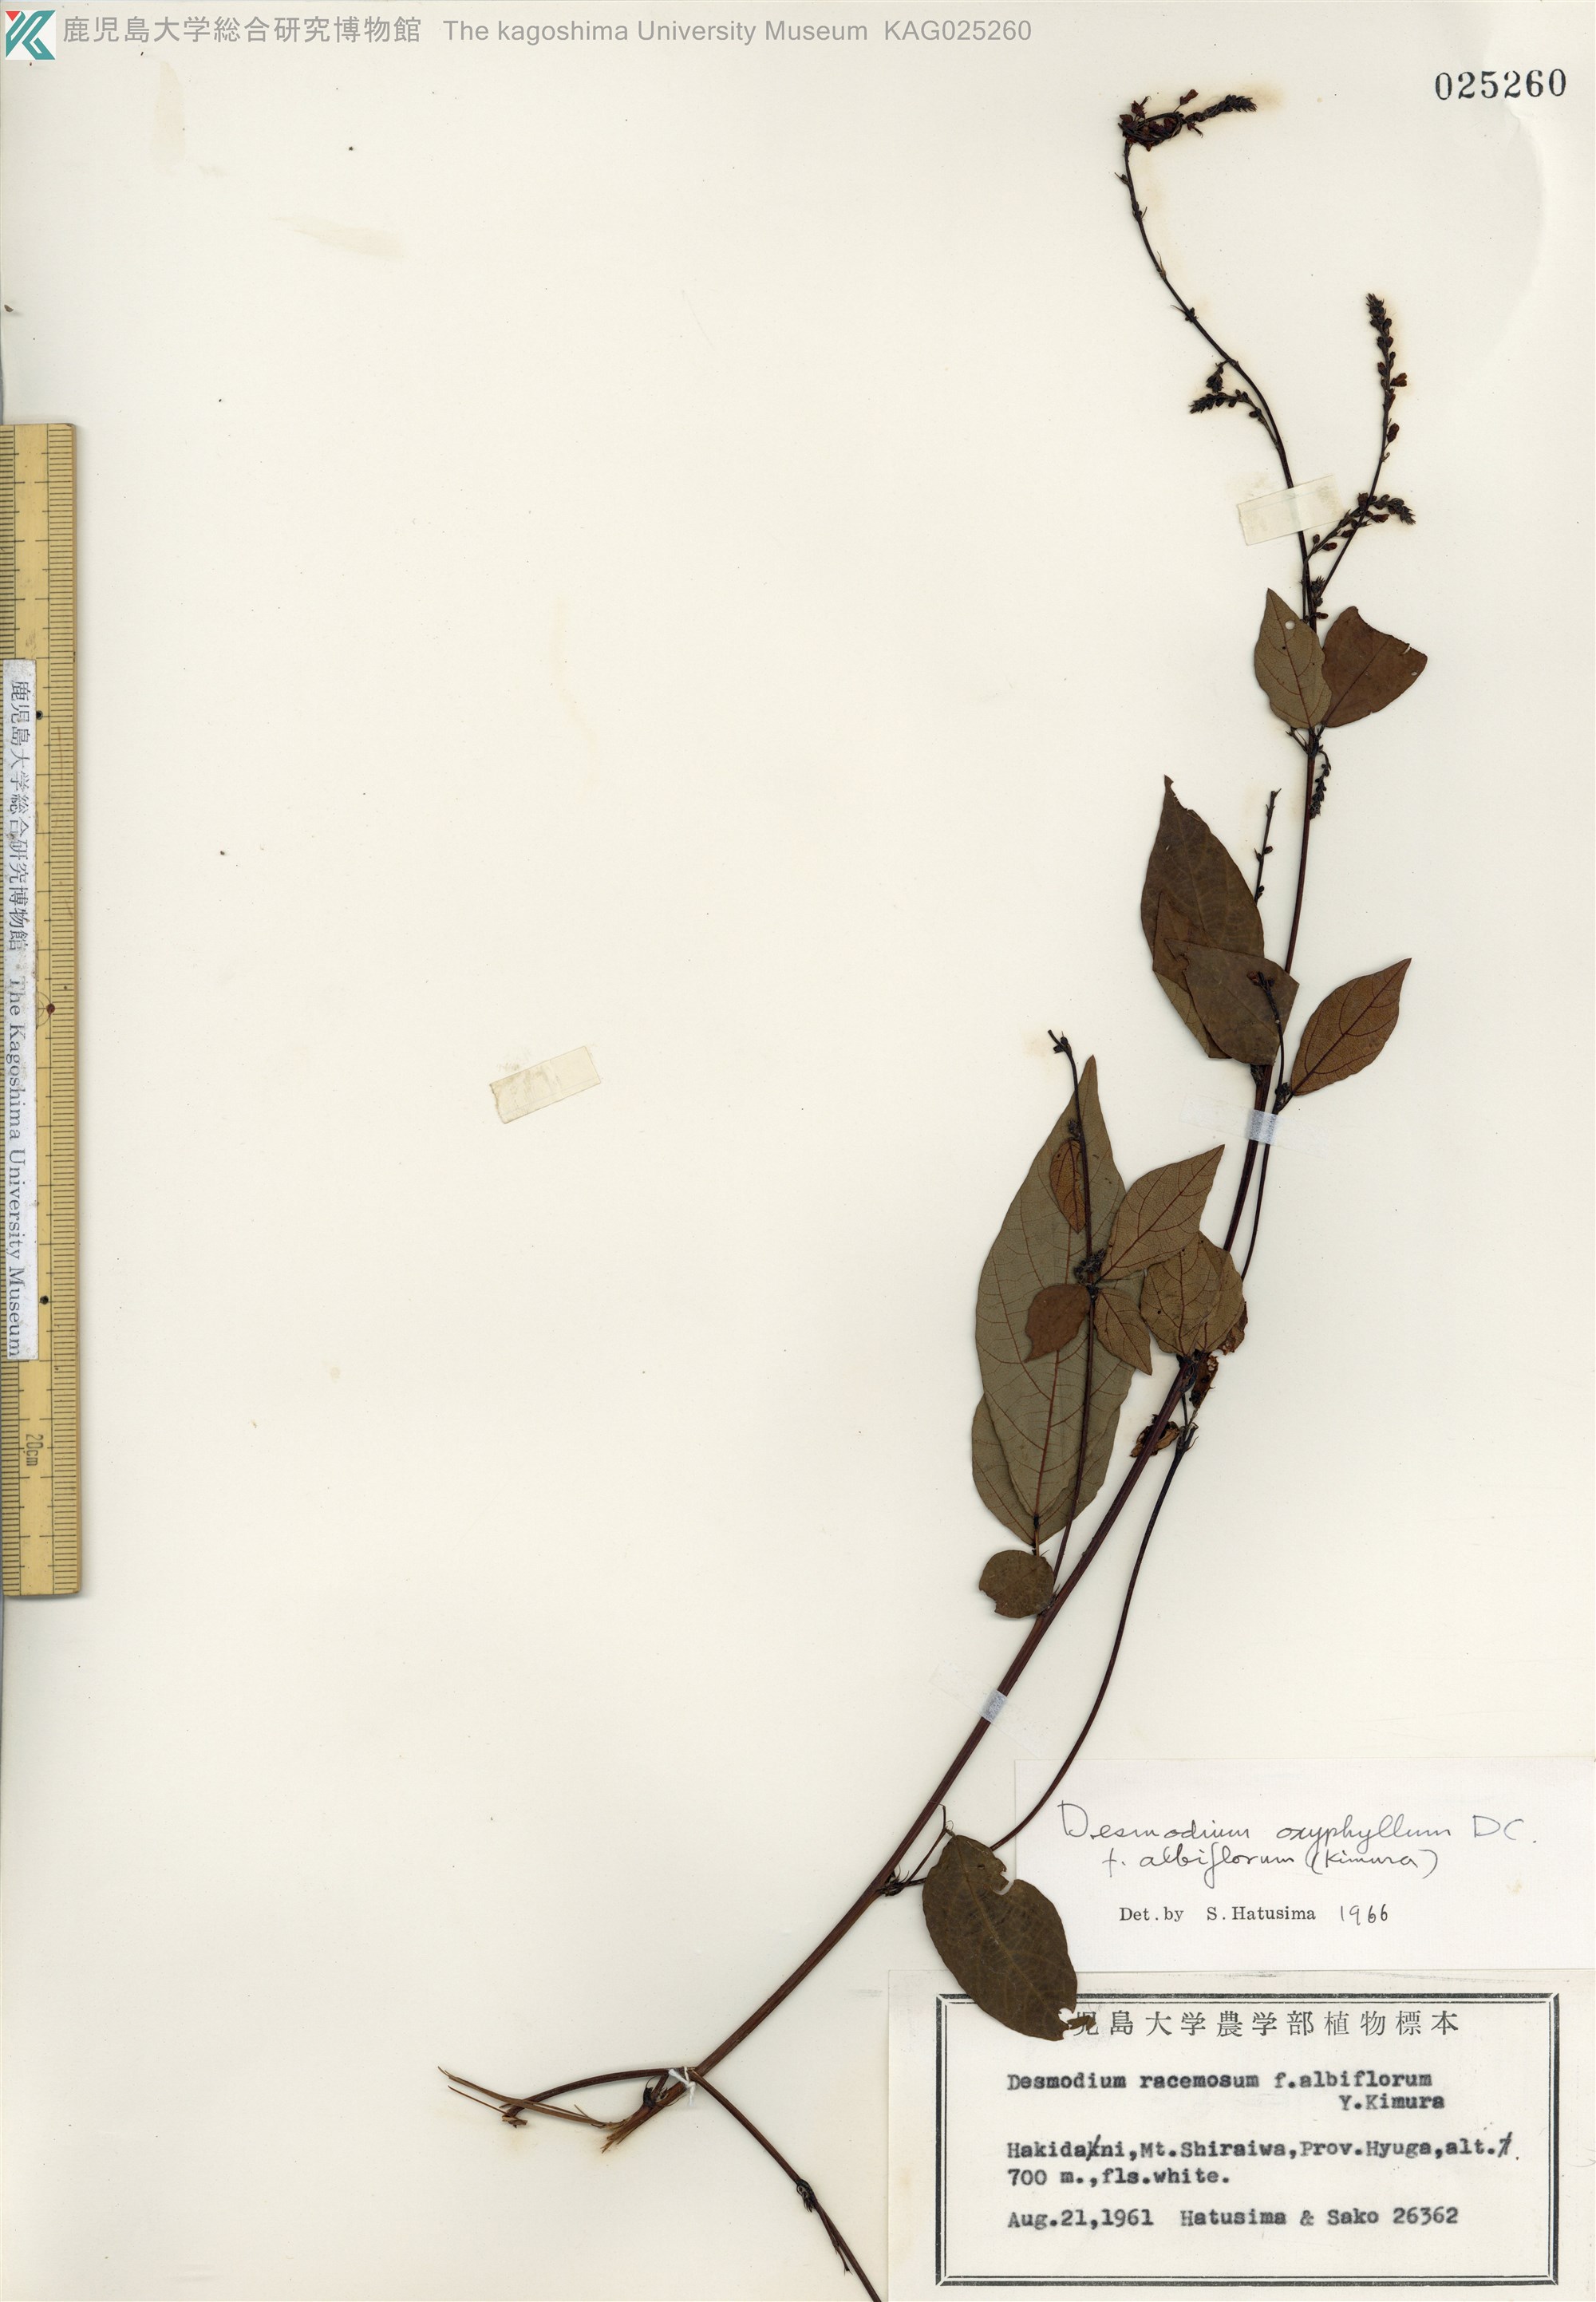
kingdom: Plantae
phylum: Tracheophyta
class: Magnoliopsida
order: Fabales
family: Fabaceae
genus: Hylodesmum
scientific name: Hylodesmum podocarpum
